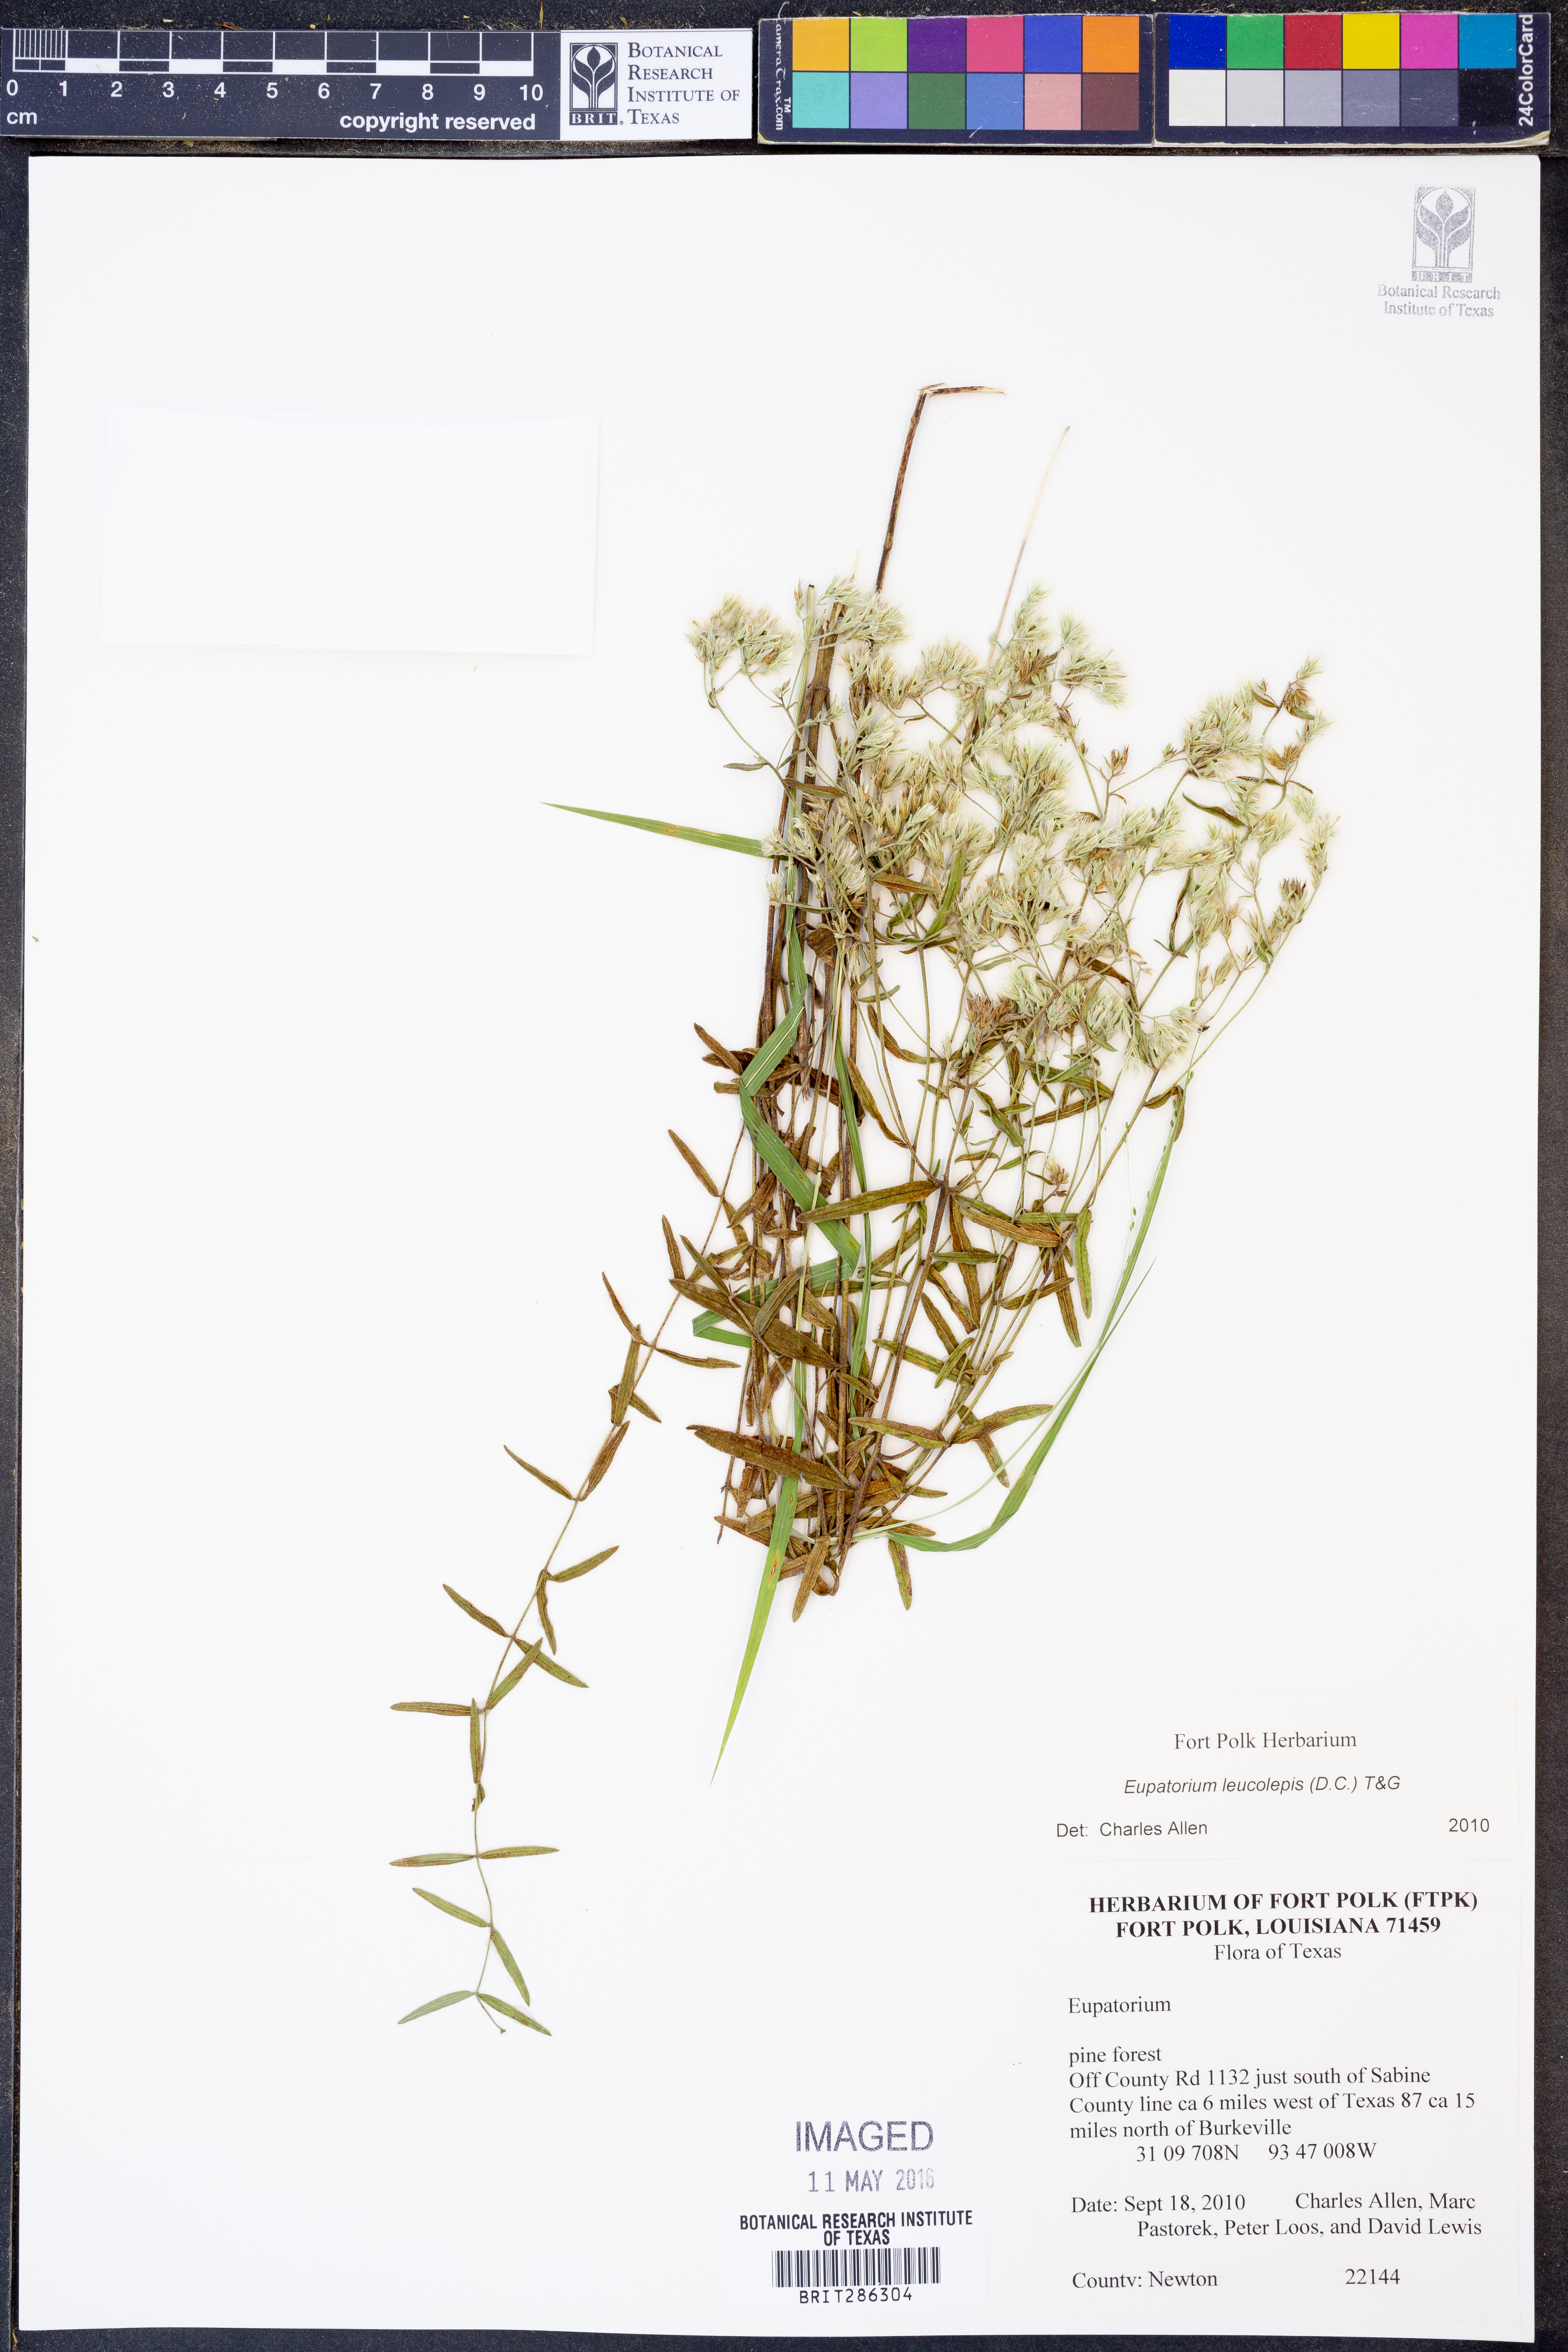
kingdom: Plantae
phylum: Tracheophyta
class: Magnoliopsida
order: Asterales
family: Asteraceae
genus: Eupatorium
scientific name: Eupatorium leucolepis
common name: Justiceweed
